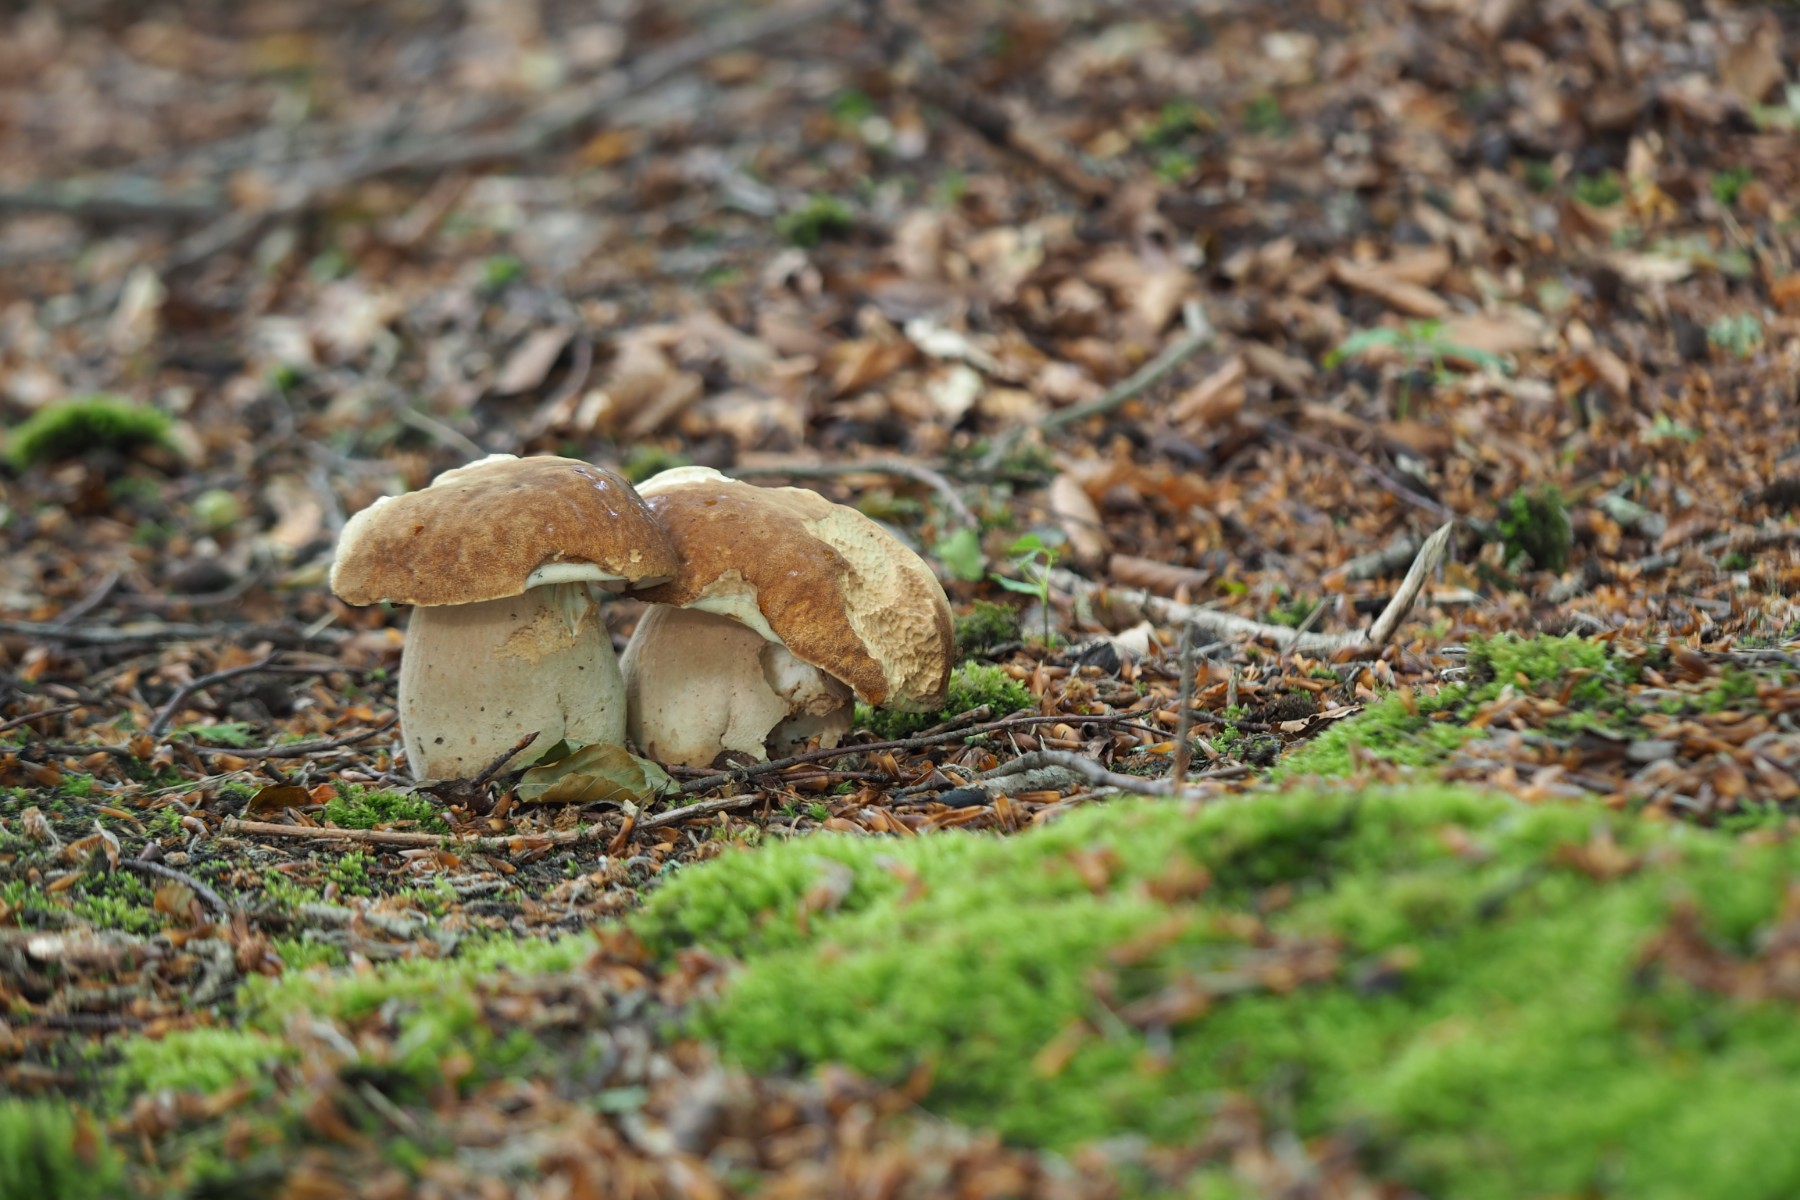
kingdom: Fungi
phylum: Basidiomycota
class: Agaricomycetes
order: Boletales
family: Boletaceae
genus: Boletus
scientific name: Boletus reticulatus
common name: sommer-rørhat
